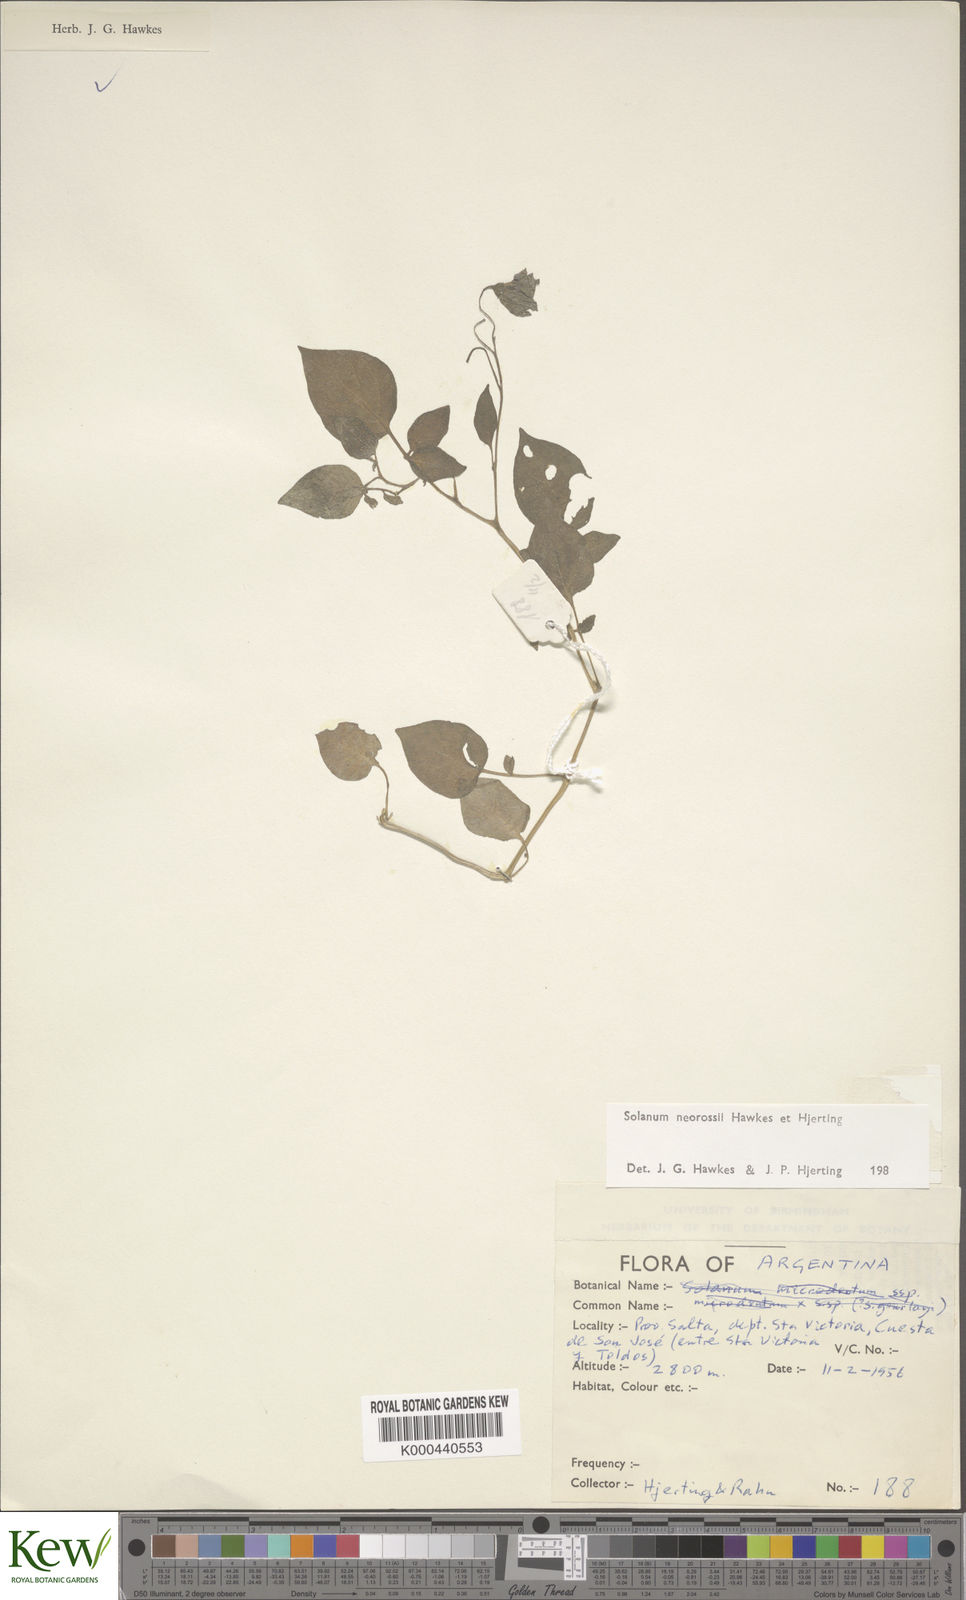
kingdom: Plantae
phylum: Tracheophyta
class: Magnoliopsida
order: Solanales
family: Solanaceae
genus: Solanum
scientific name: Solanum neorossii
